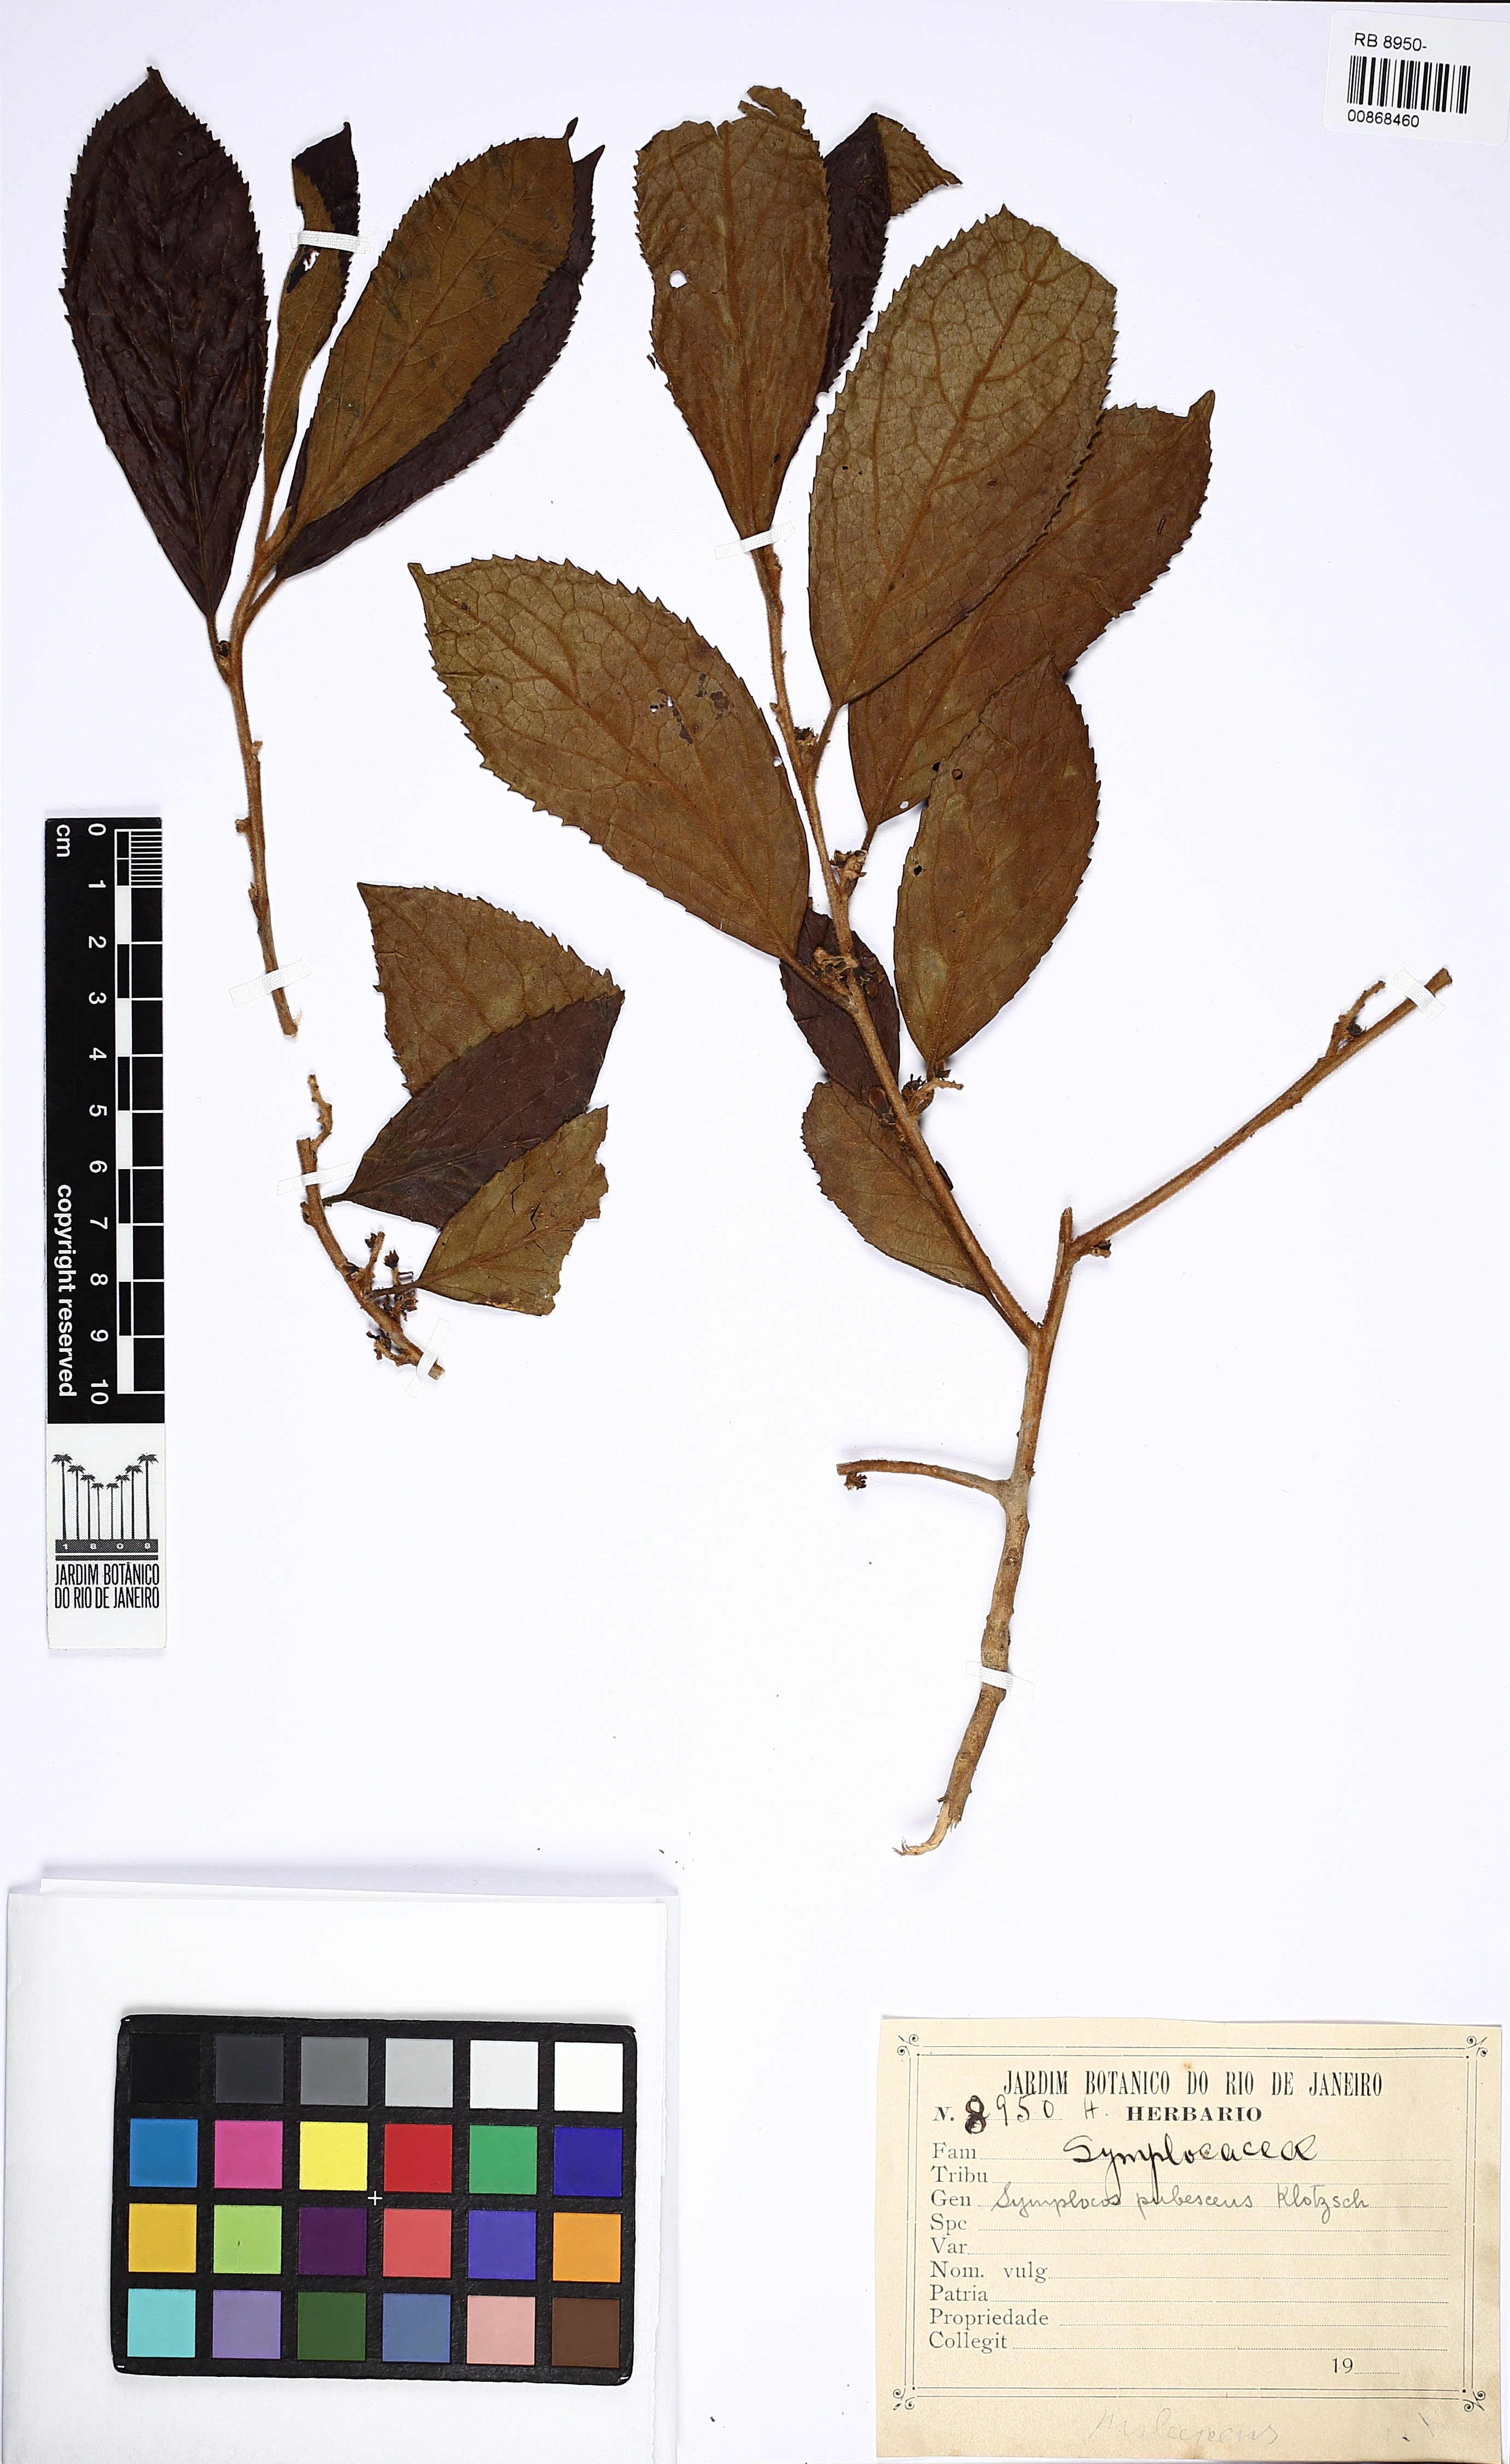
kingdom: Plantae
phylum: Tracheophyta
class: Magnoliopsida
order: Ericales
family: Symplocaceae
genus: Symplocos
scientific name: Symplocos pubescens
